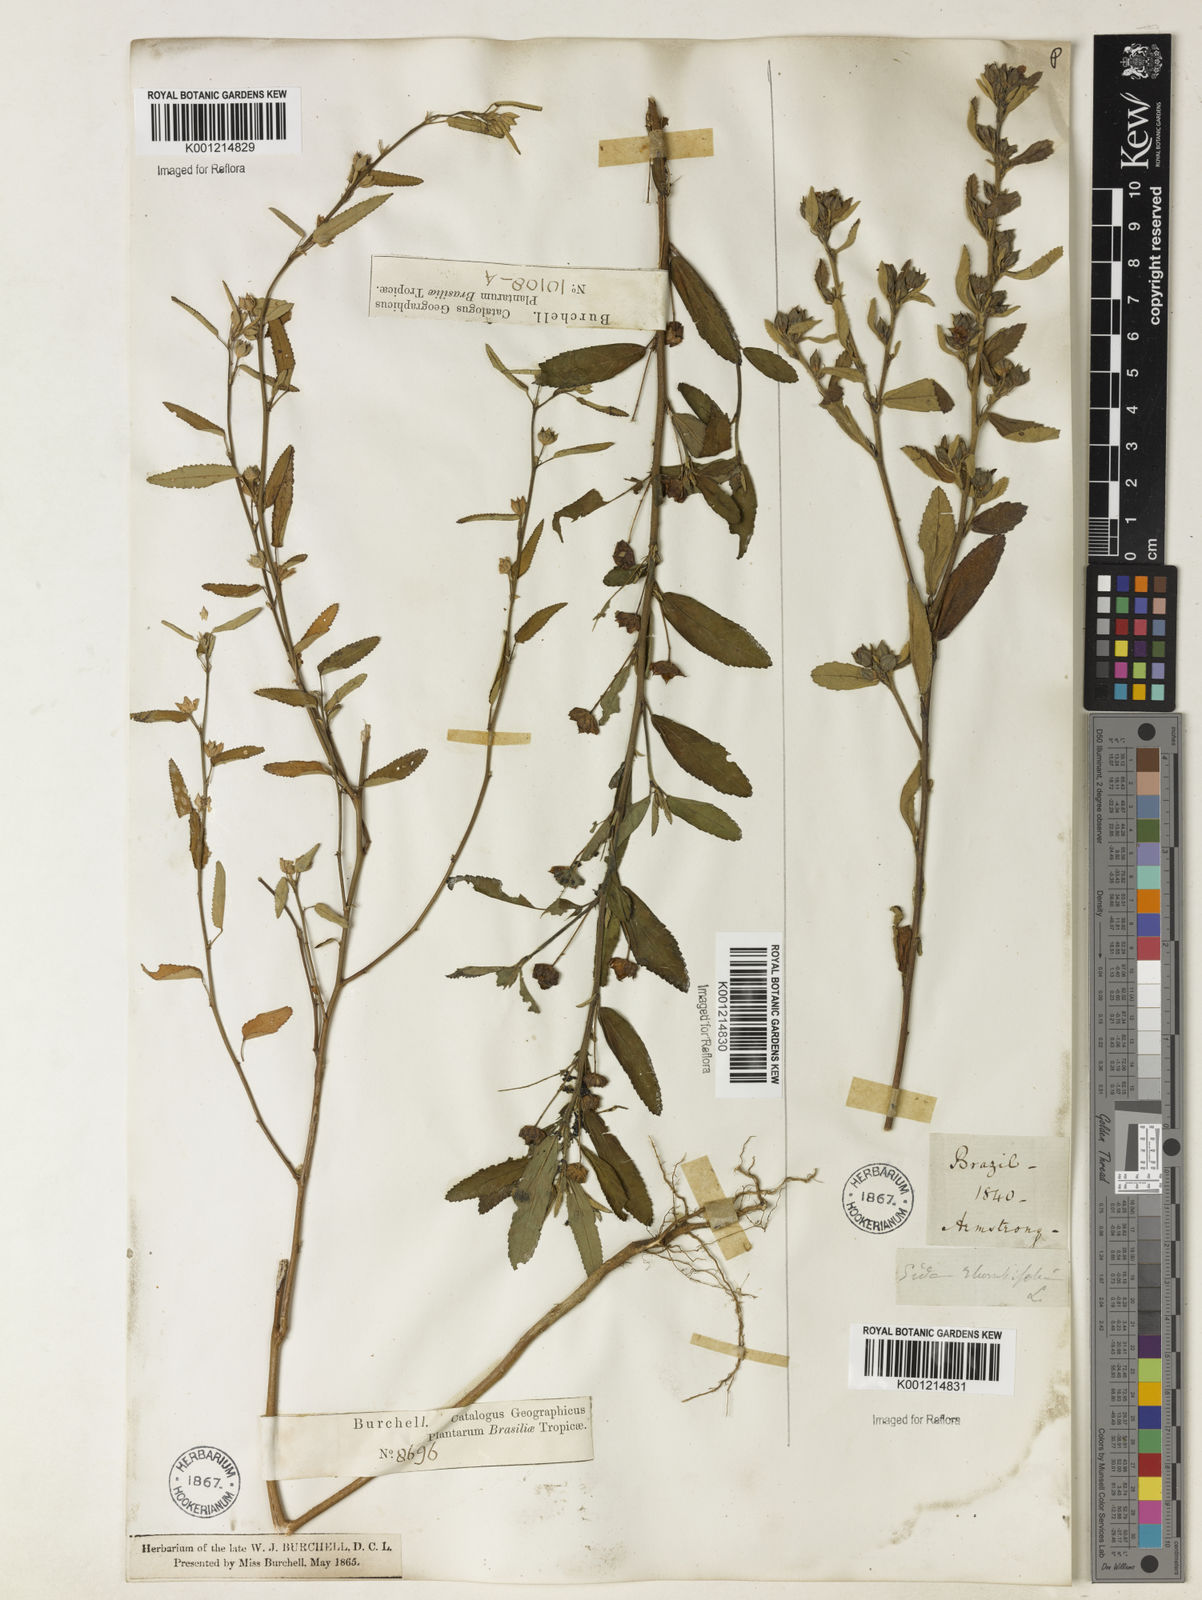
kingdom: Plantae
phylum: Tracheophyta
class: Magnoliopsida
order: Malvales
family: Malvaceae
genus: Sida
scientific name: Sida rhombifolia
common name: Queensland-hemp
